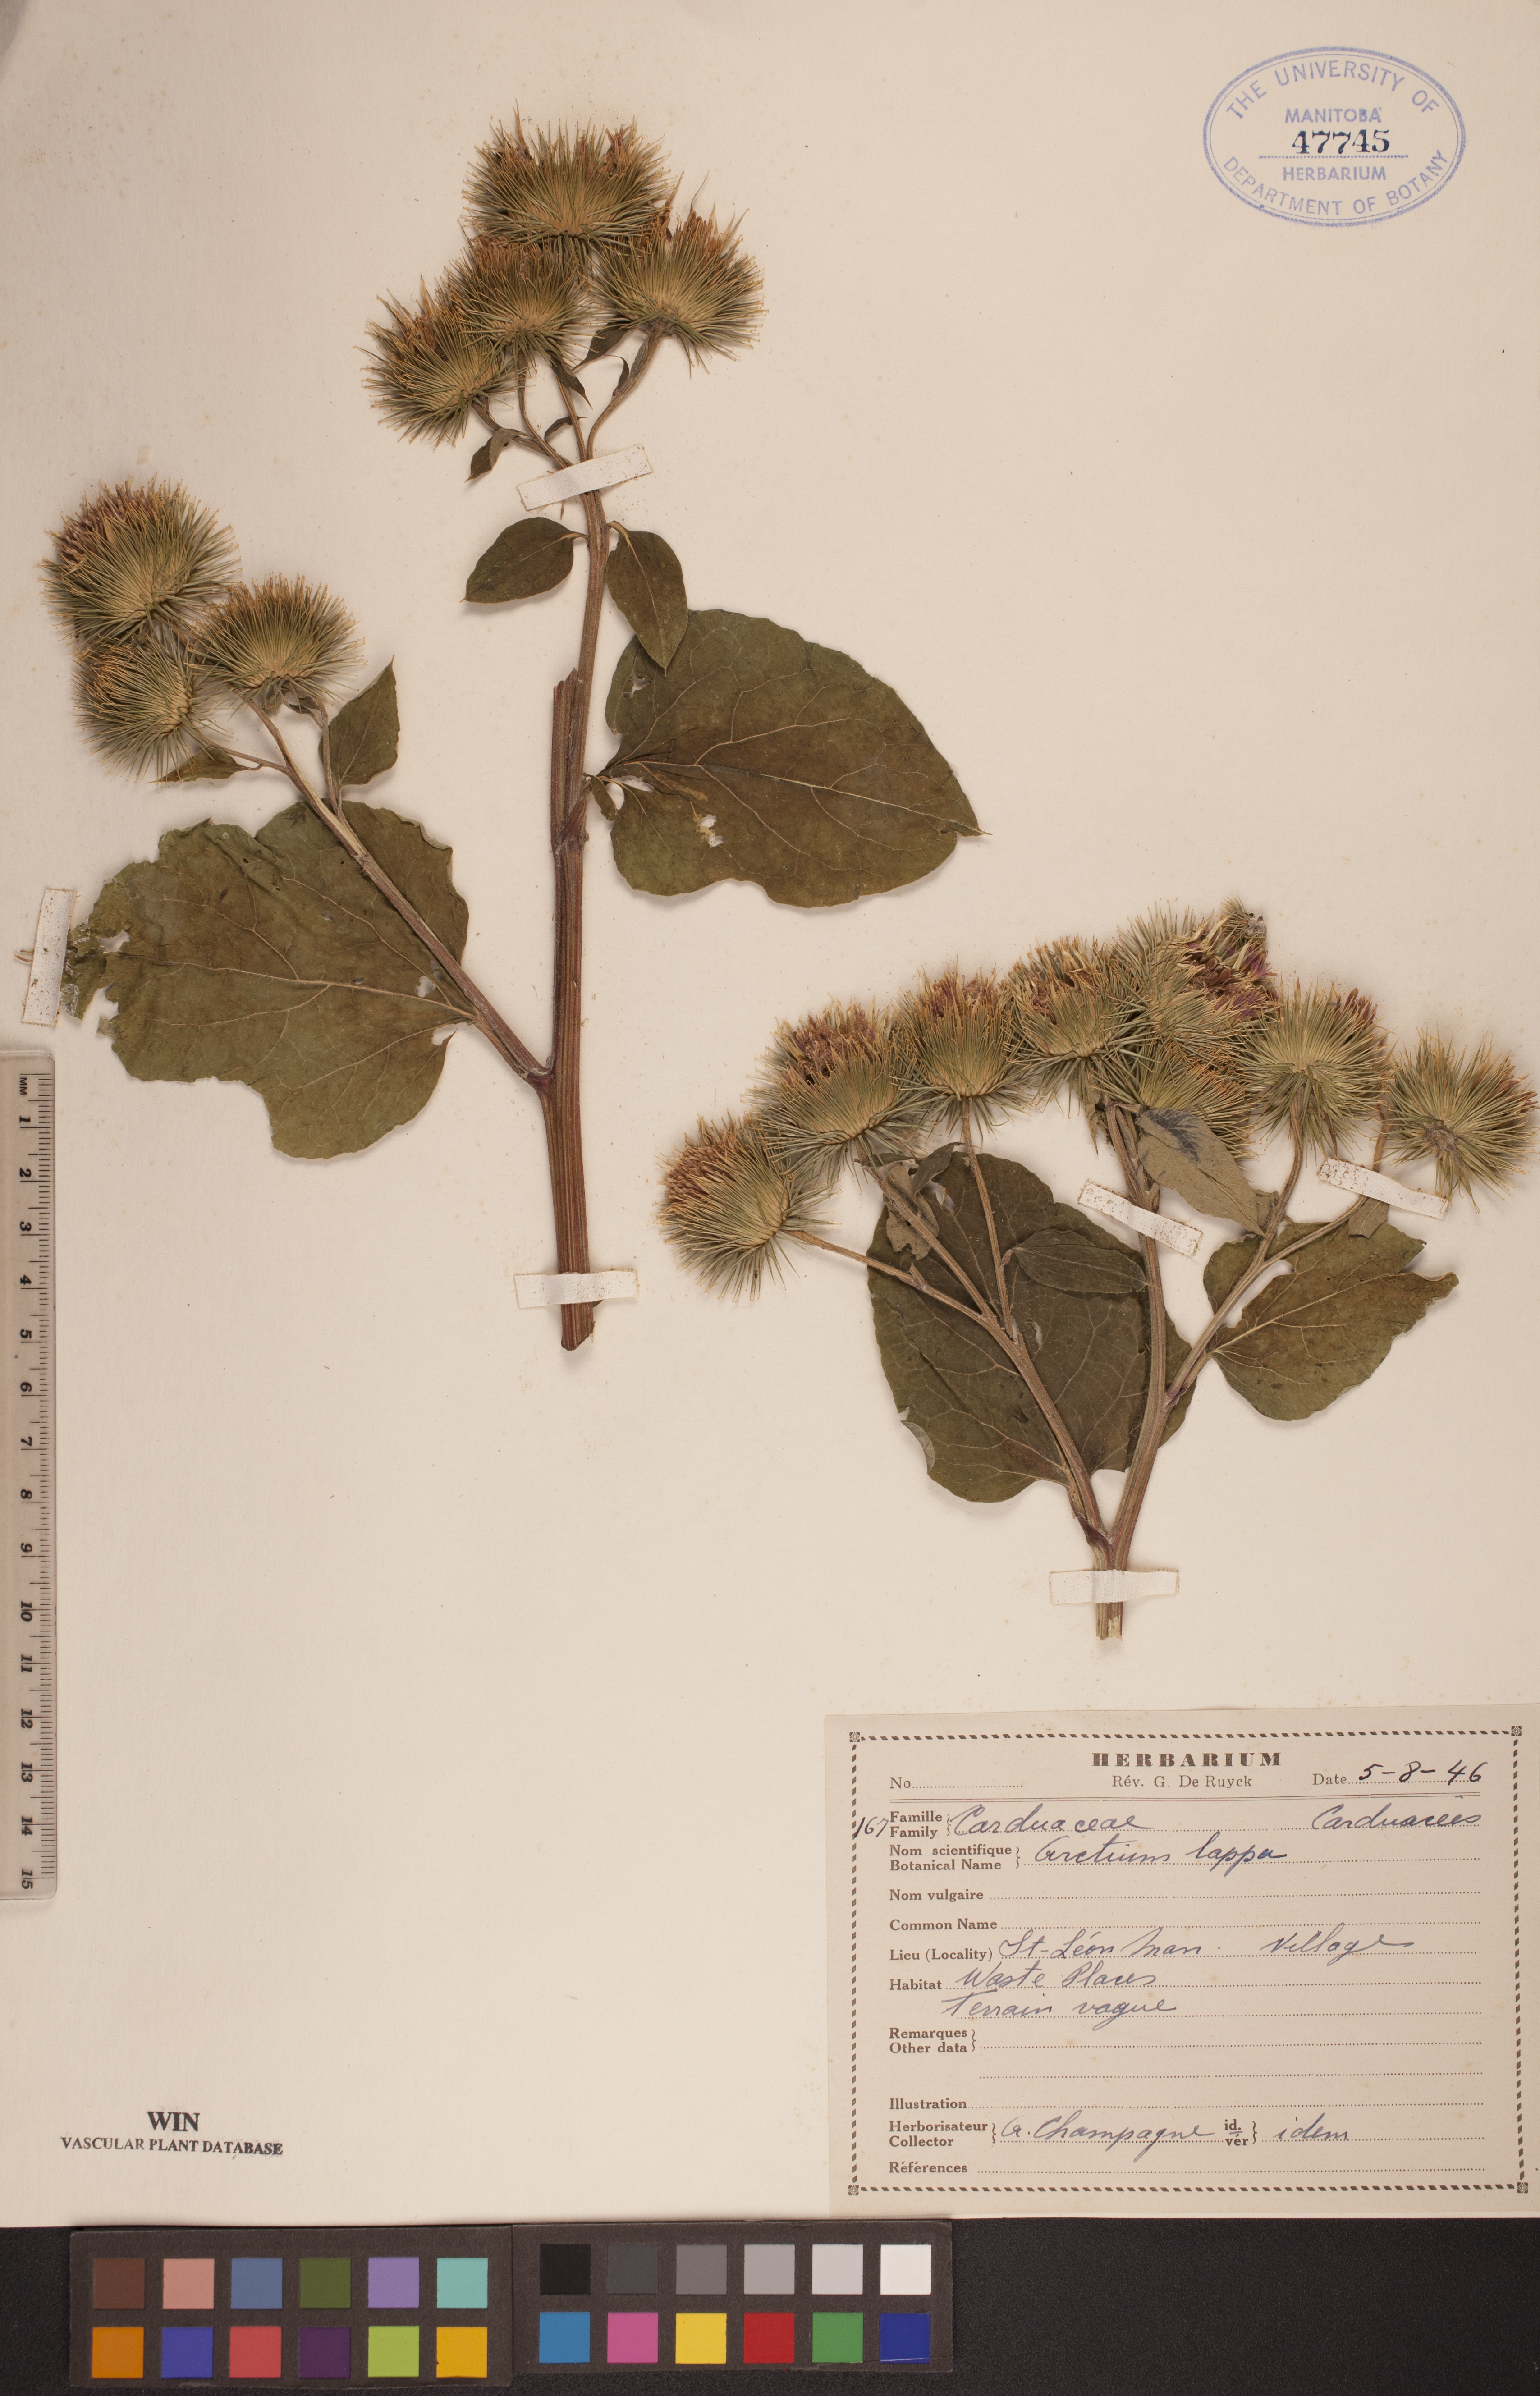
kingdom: Plantae
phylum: Tracheophyta
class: Magnoliopsida
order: Asterales
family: Asteraceae
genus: Arctium
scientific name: Arctium lappa
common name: Greater burdock
